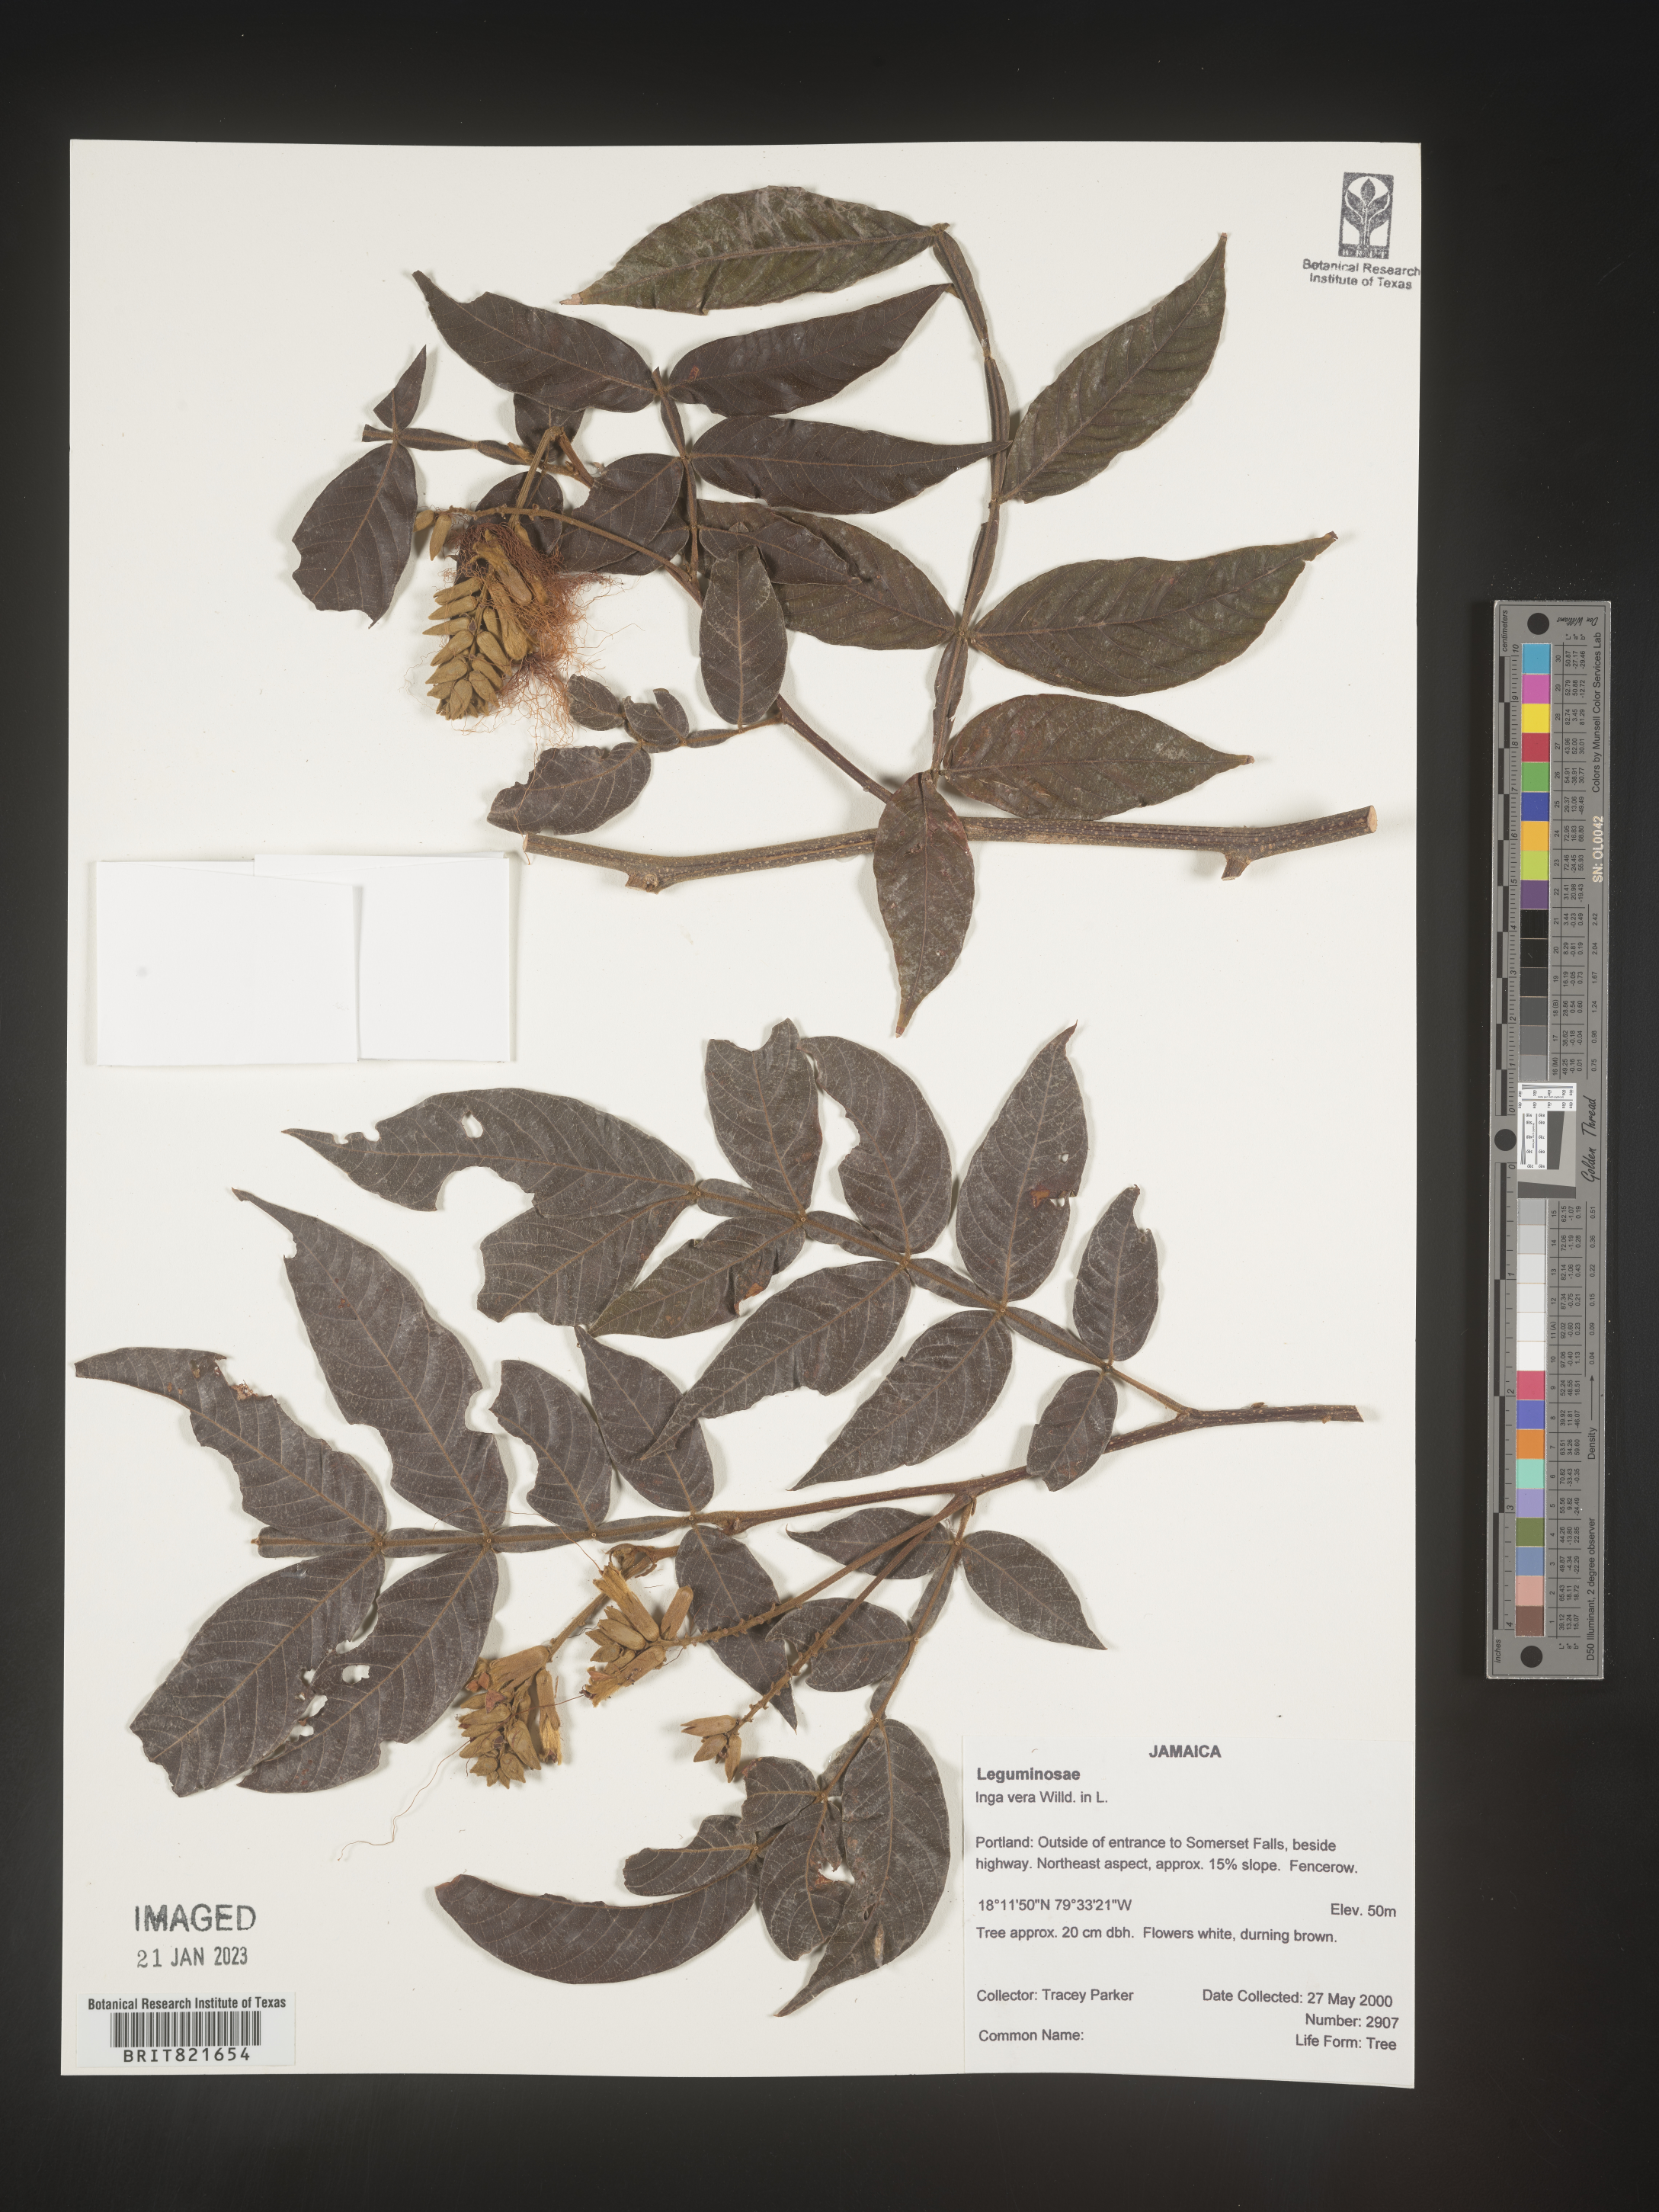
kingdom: Plantae
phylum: Tracheophyta
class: Magnoliopsida
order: Fabales
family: Fabaceae
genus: Inga
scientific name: Inga
